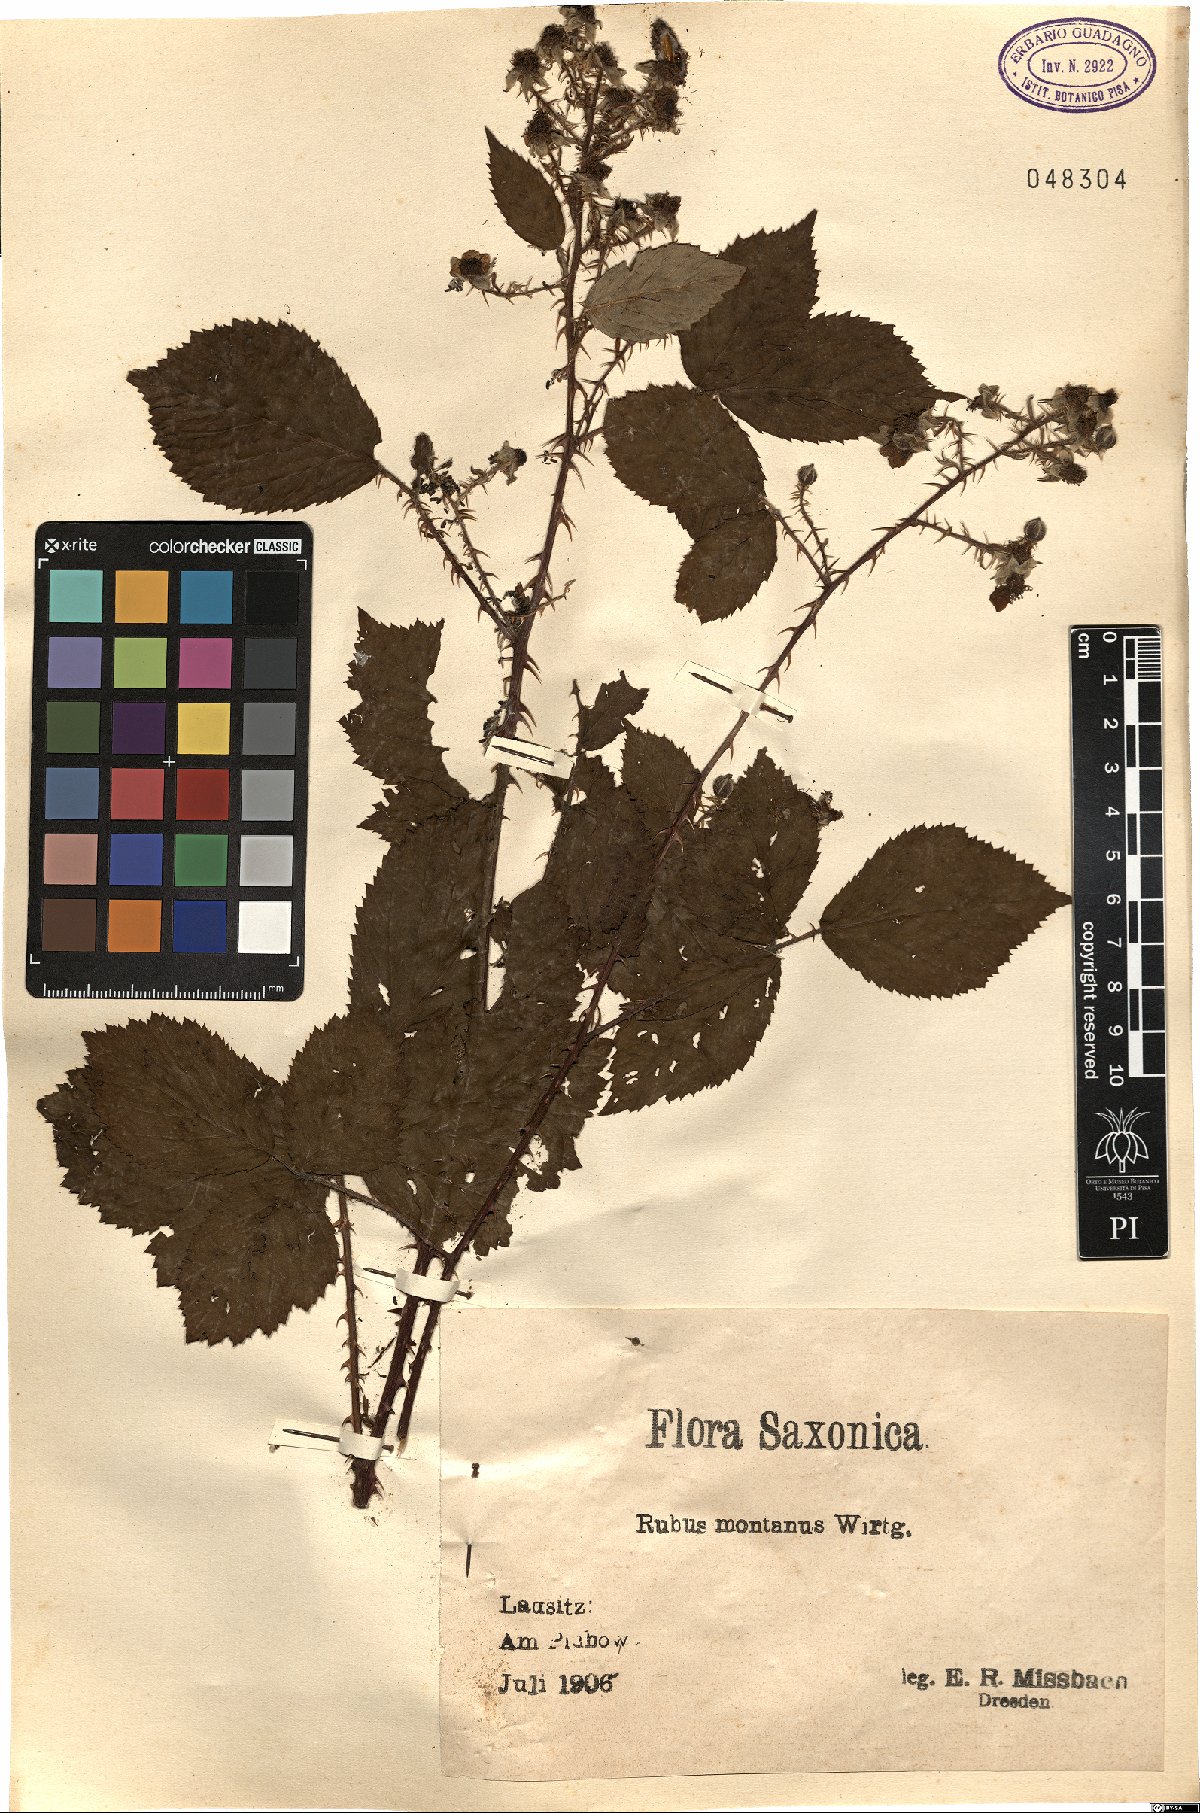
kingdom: Plantae
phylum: Tracheophyta
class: Magnoliopsida
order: Rosales
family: Rosaceae
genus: Rubus
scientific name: Rubus montanus
